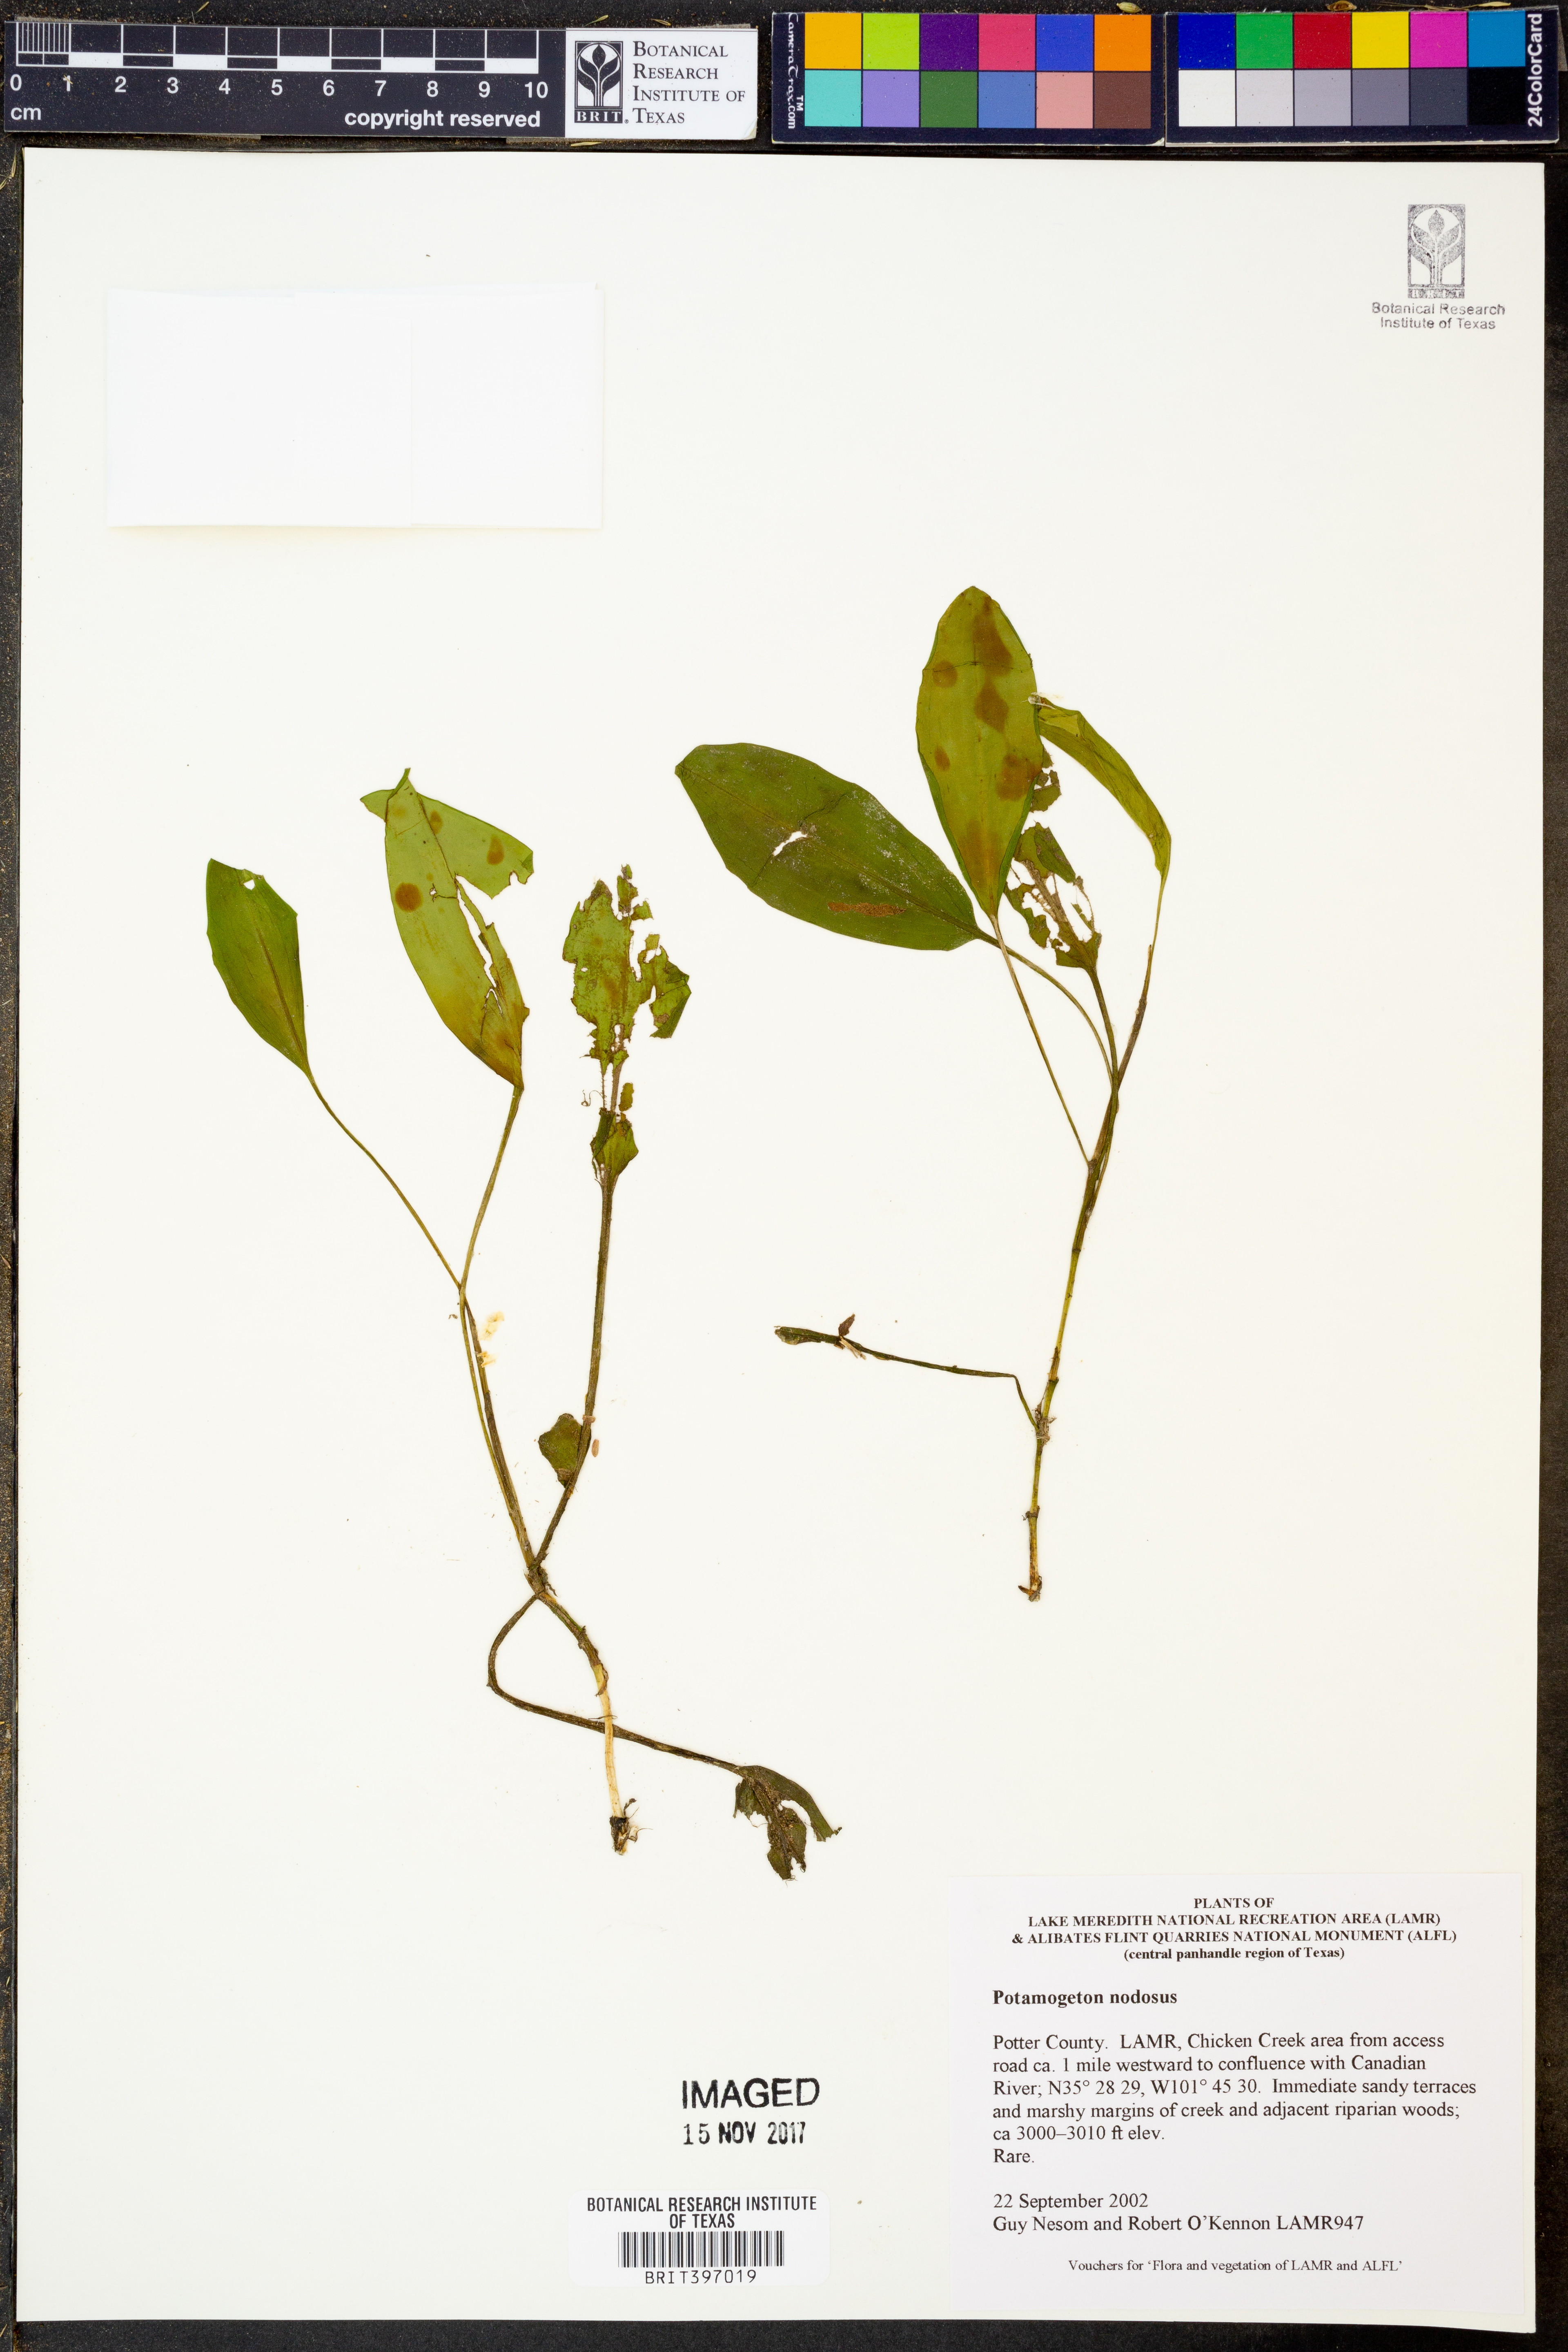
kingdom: Plantae
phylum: Tracheophyta
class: Liliopsida
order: Alismatales
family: Potamogetonaceae
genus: Potamogeton
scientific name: Potamogeton nodosus
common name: Loddon pondweed
